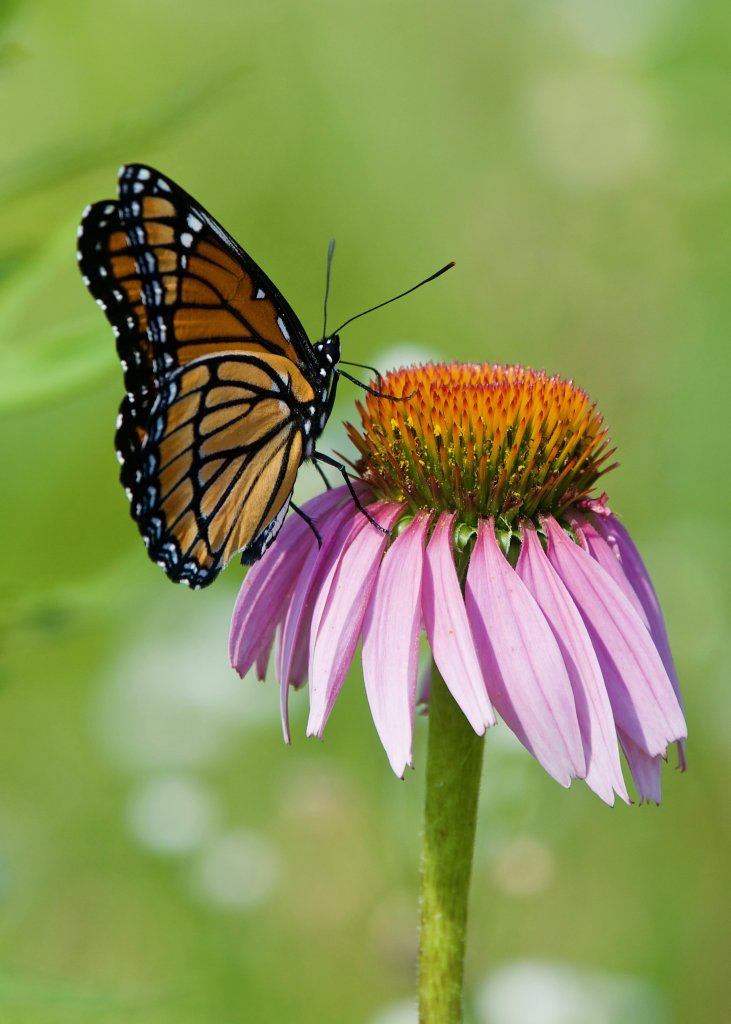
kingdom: Animalia
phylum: Arthropoda
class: Insecta
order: Lepidoptera
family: Nymphalidae
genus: Limenitis
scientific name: Limenitis archippus
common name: Viceroy
